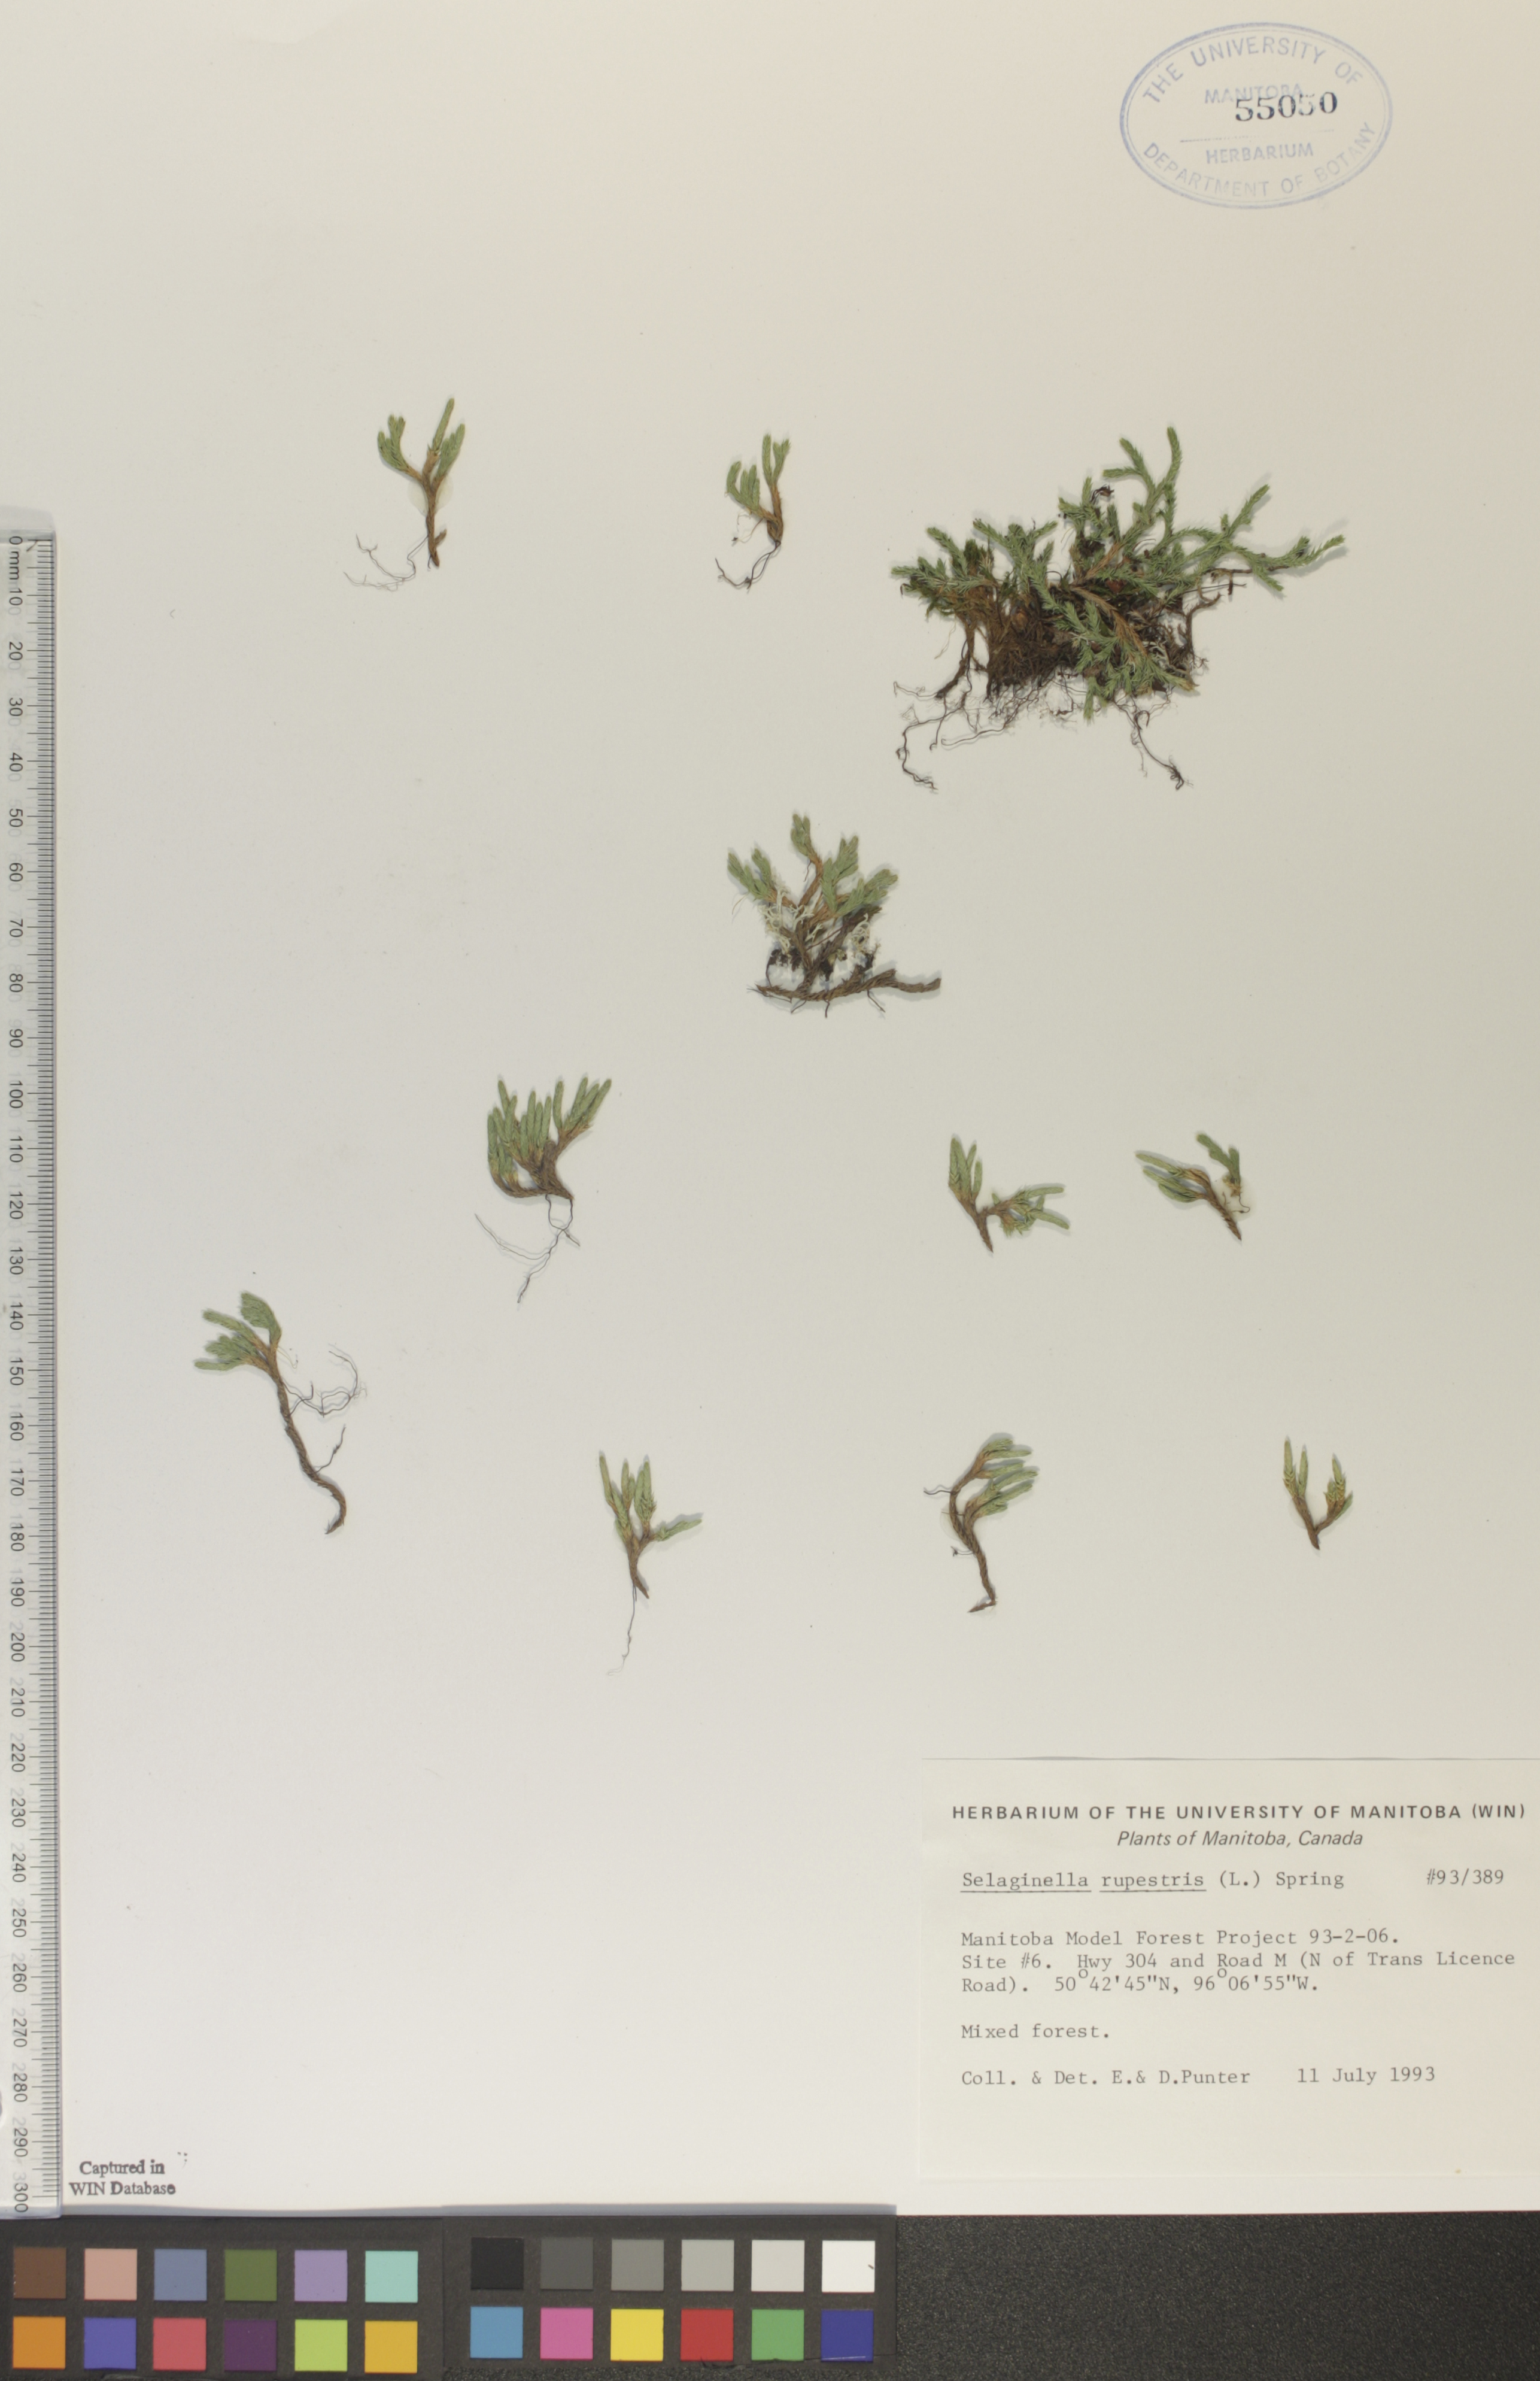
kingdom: Plantae
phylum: Tracheophyta
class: Lycopodiopsida
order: Selaginellales
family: Selaginellaceae
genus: Selaginella
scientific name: Selaginella rupestris
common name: Dwarf spikemoss
